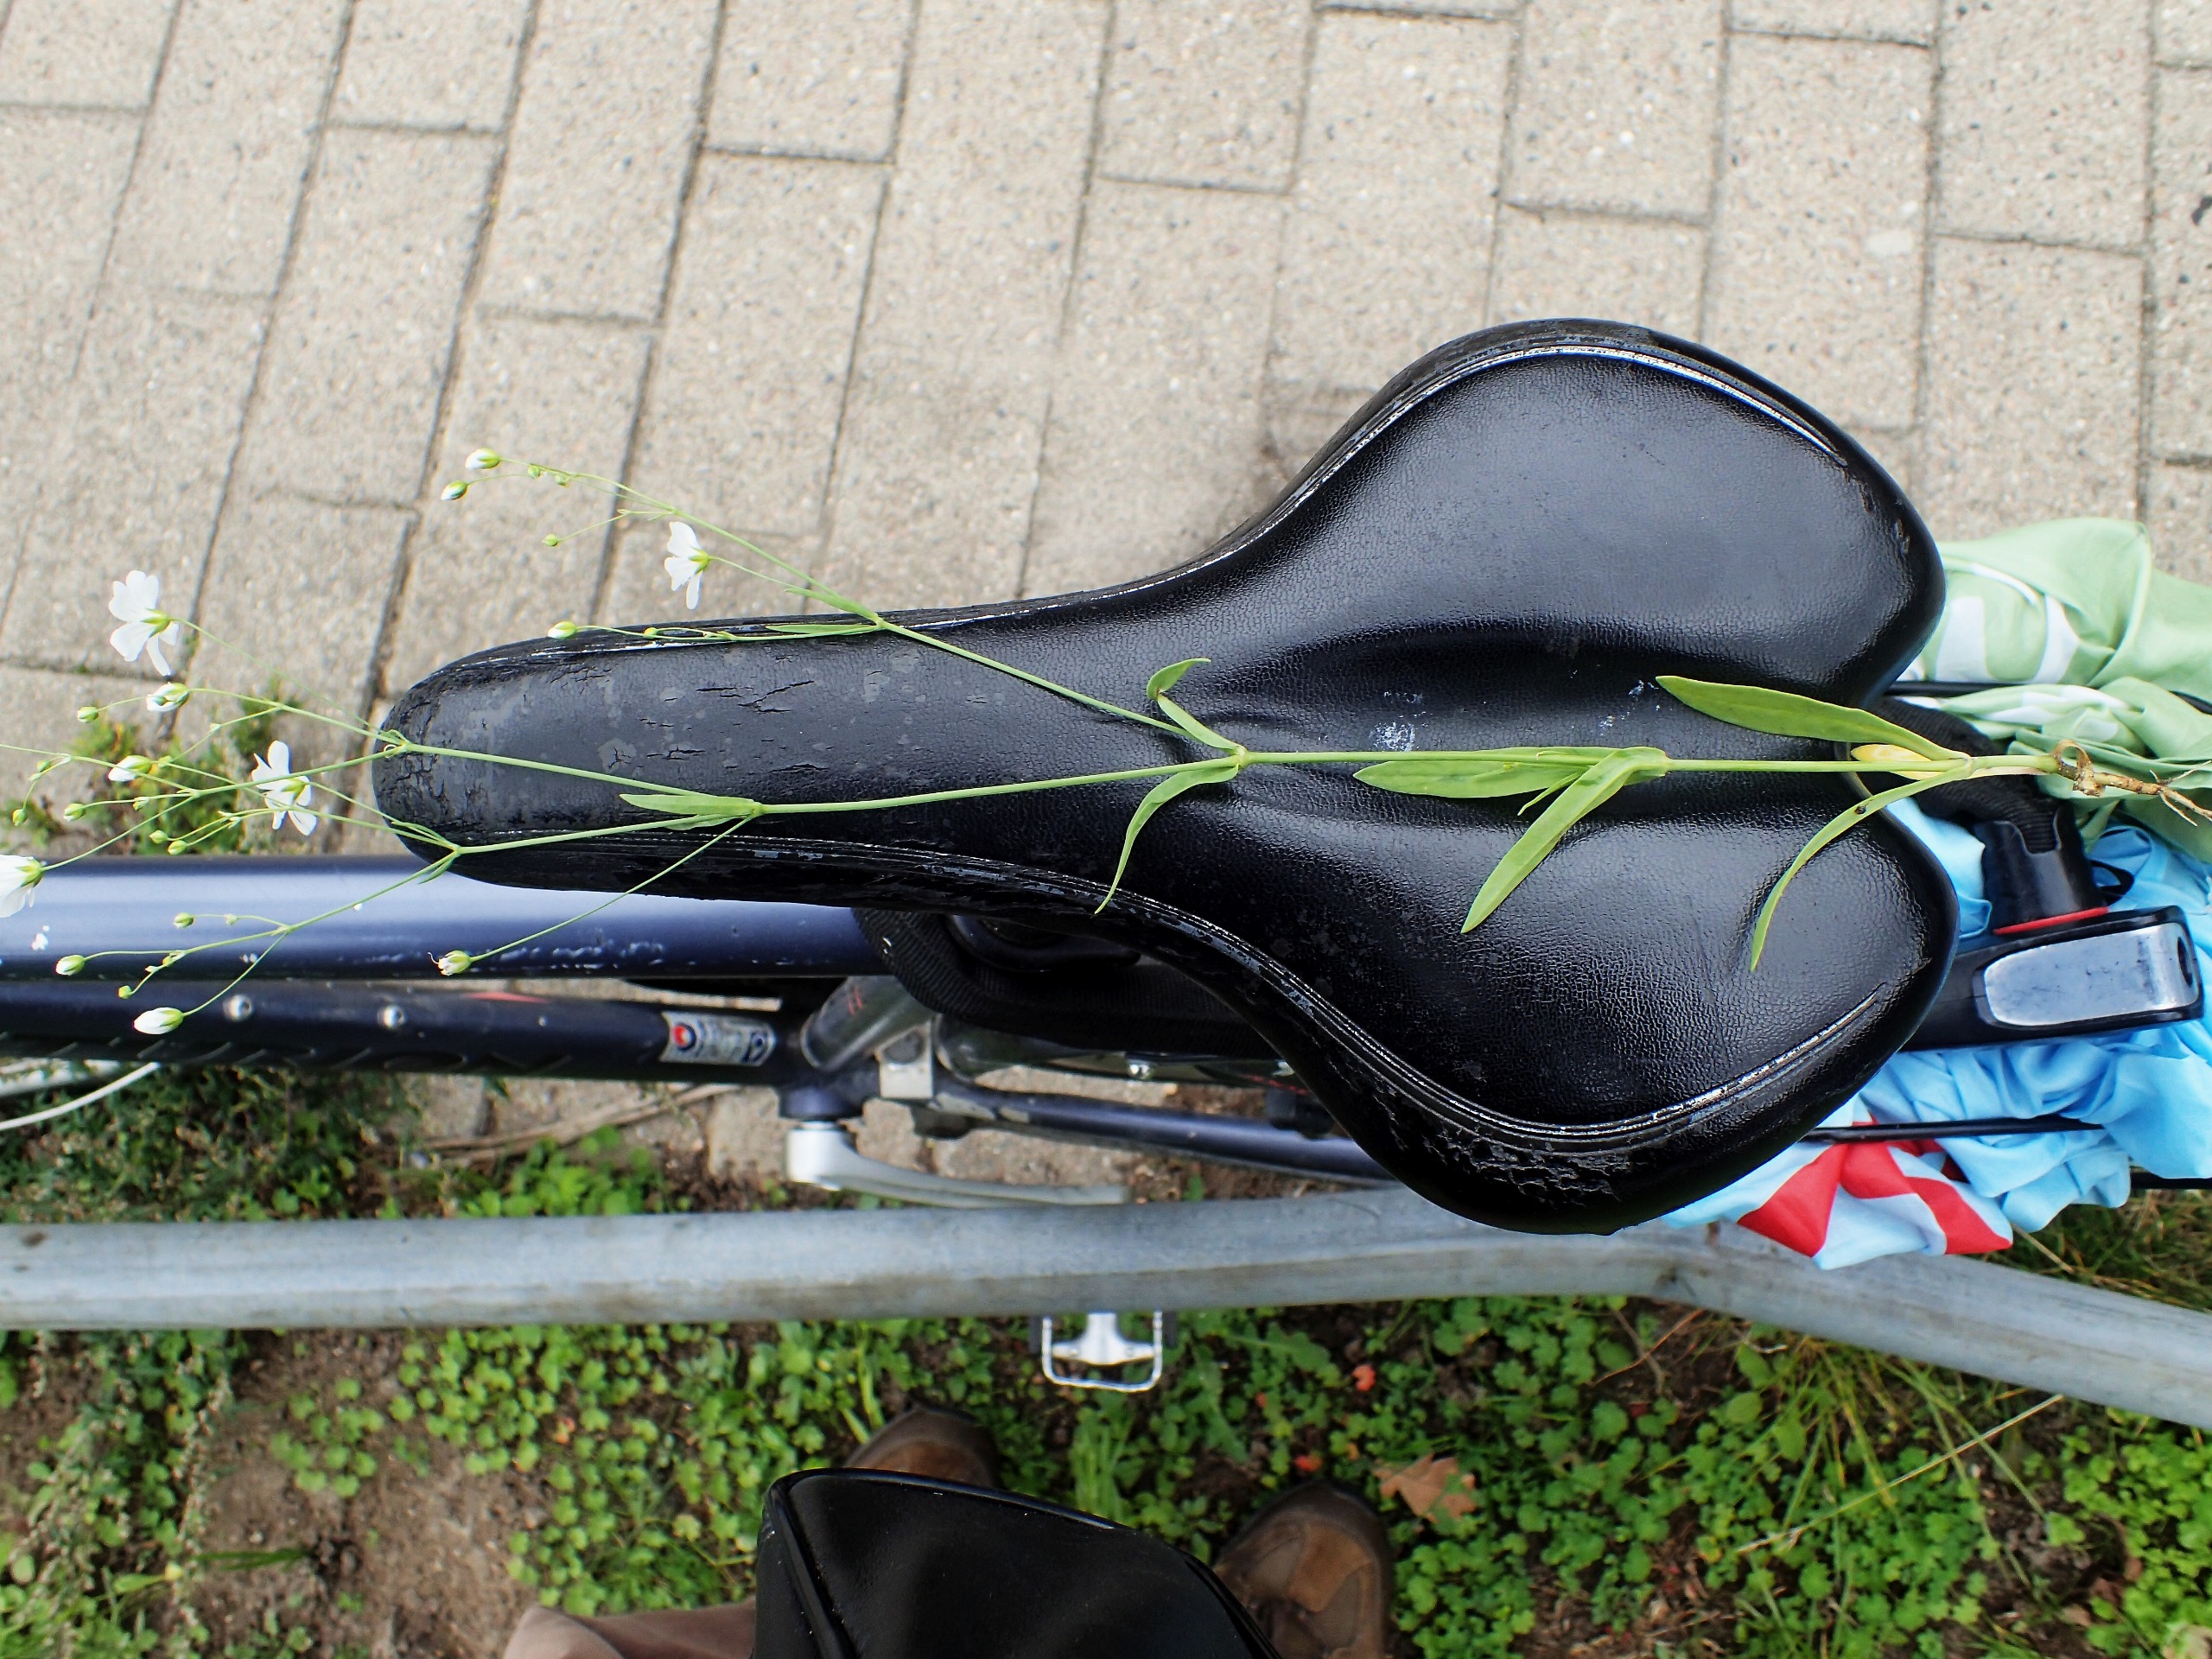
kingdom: Plantae
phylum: Tracheophyta
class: Magnoliopsida
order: Caryophyllales
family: Caryophyllaceae
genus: Gypsophila
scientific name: Gypsophila elegans
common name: Enårig brudeslør
